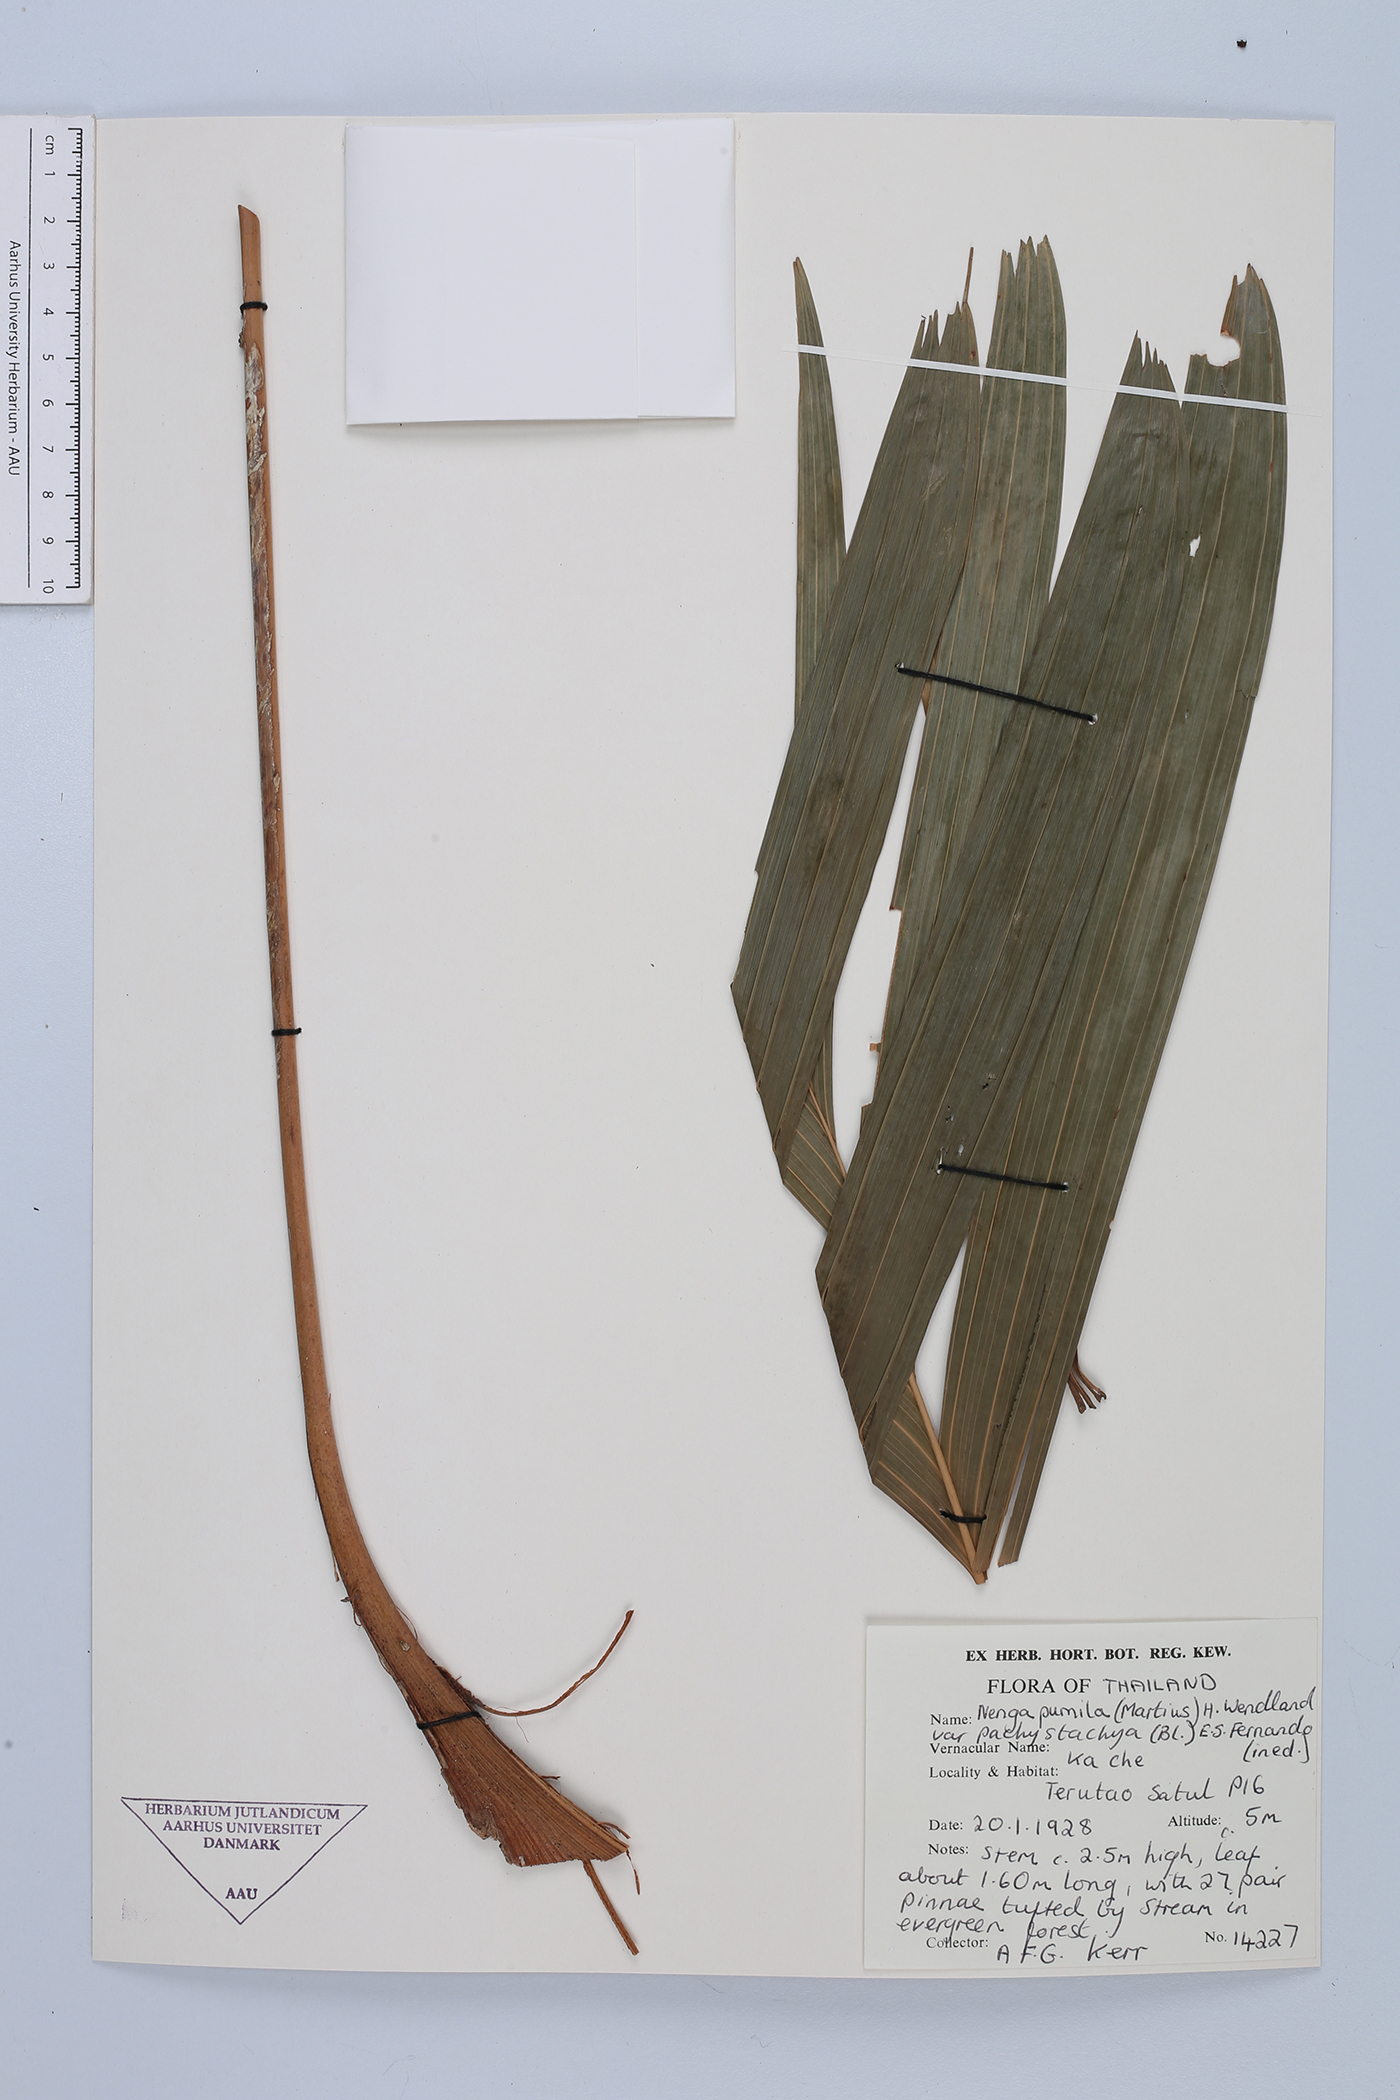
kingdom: Plantae
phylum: Tracheophyta
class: Liliopsida
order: Arecales
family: Arecaceae
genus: Nenga
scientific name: Nenga pumila
